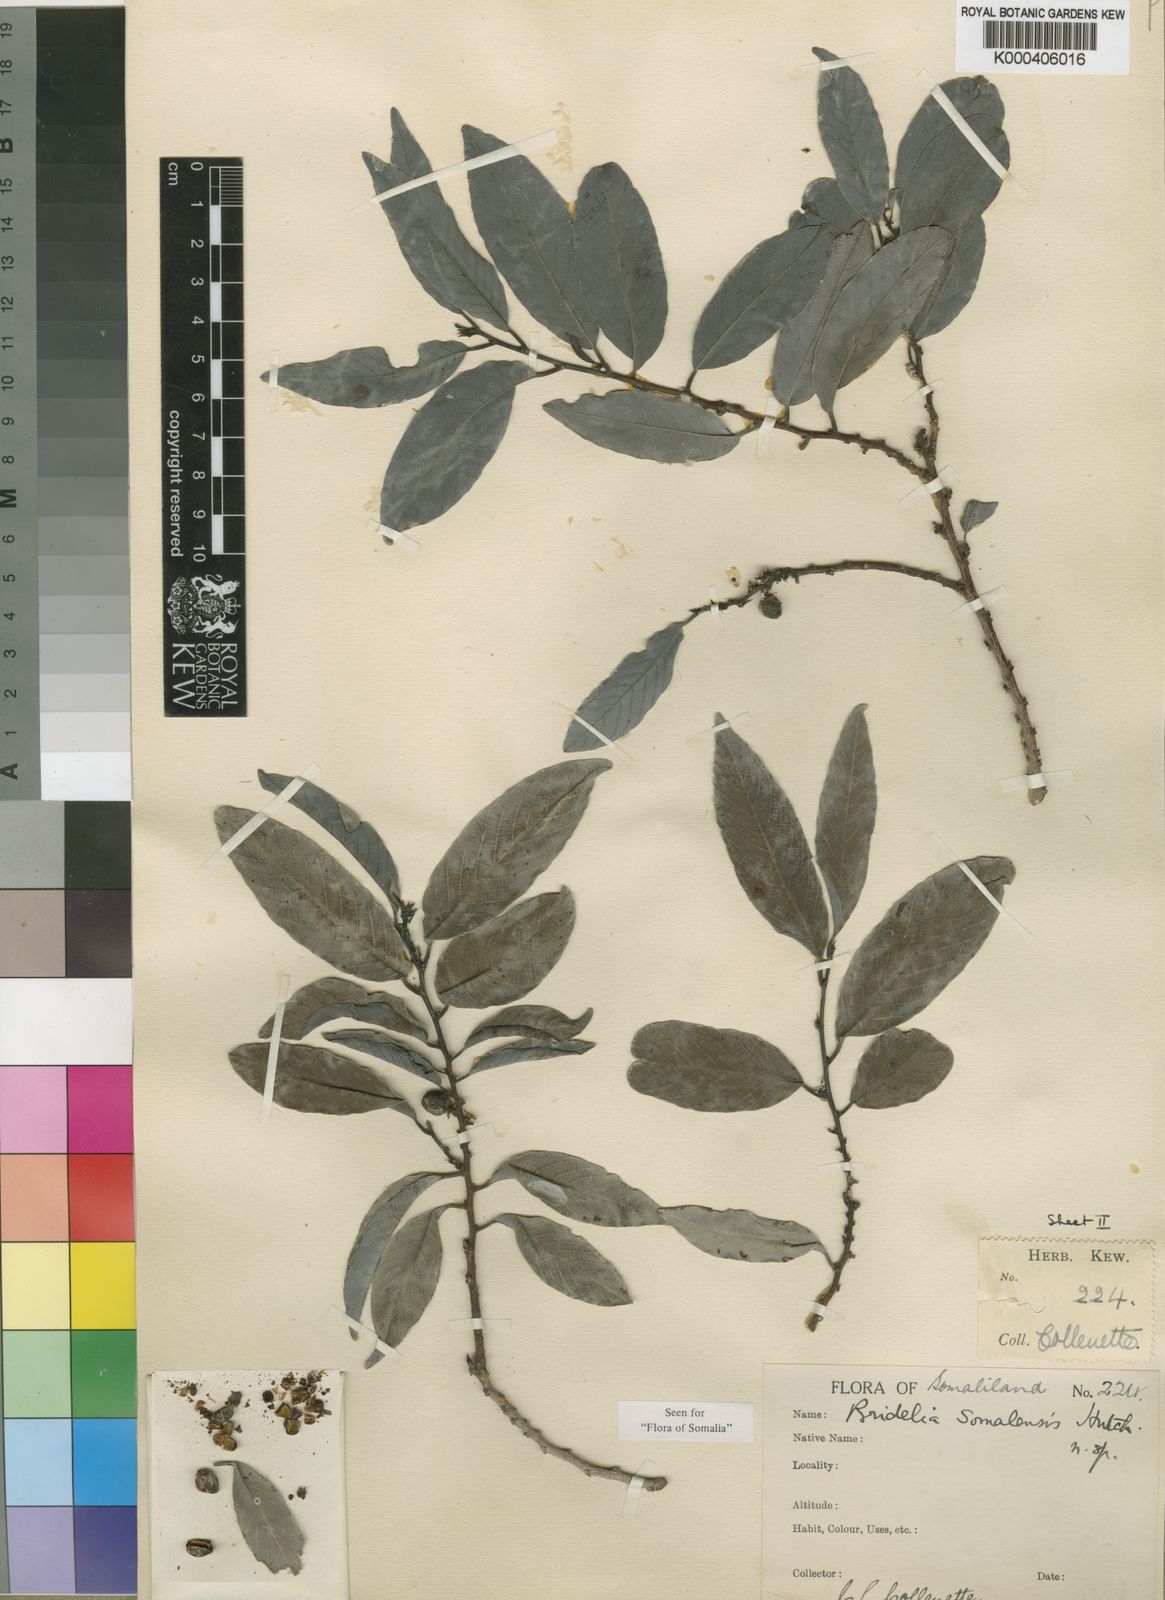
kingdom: Plantae
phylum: Tracheophyta
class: Magnoliopsida
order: Malpighiales
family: Phyllanthaceae
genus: Bridelia
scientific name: Bridelia somalensis
